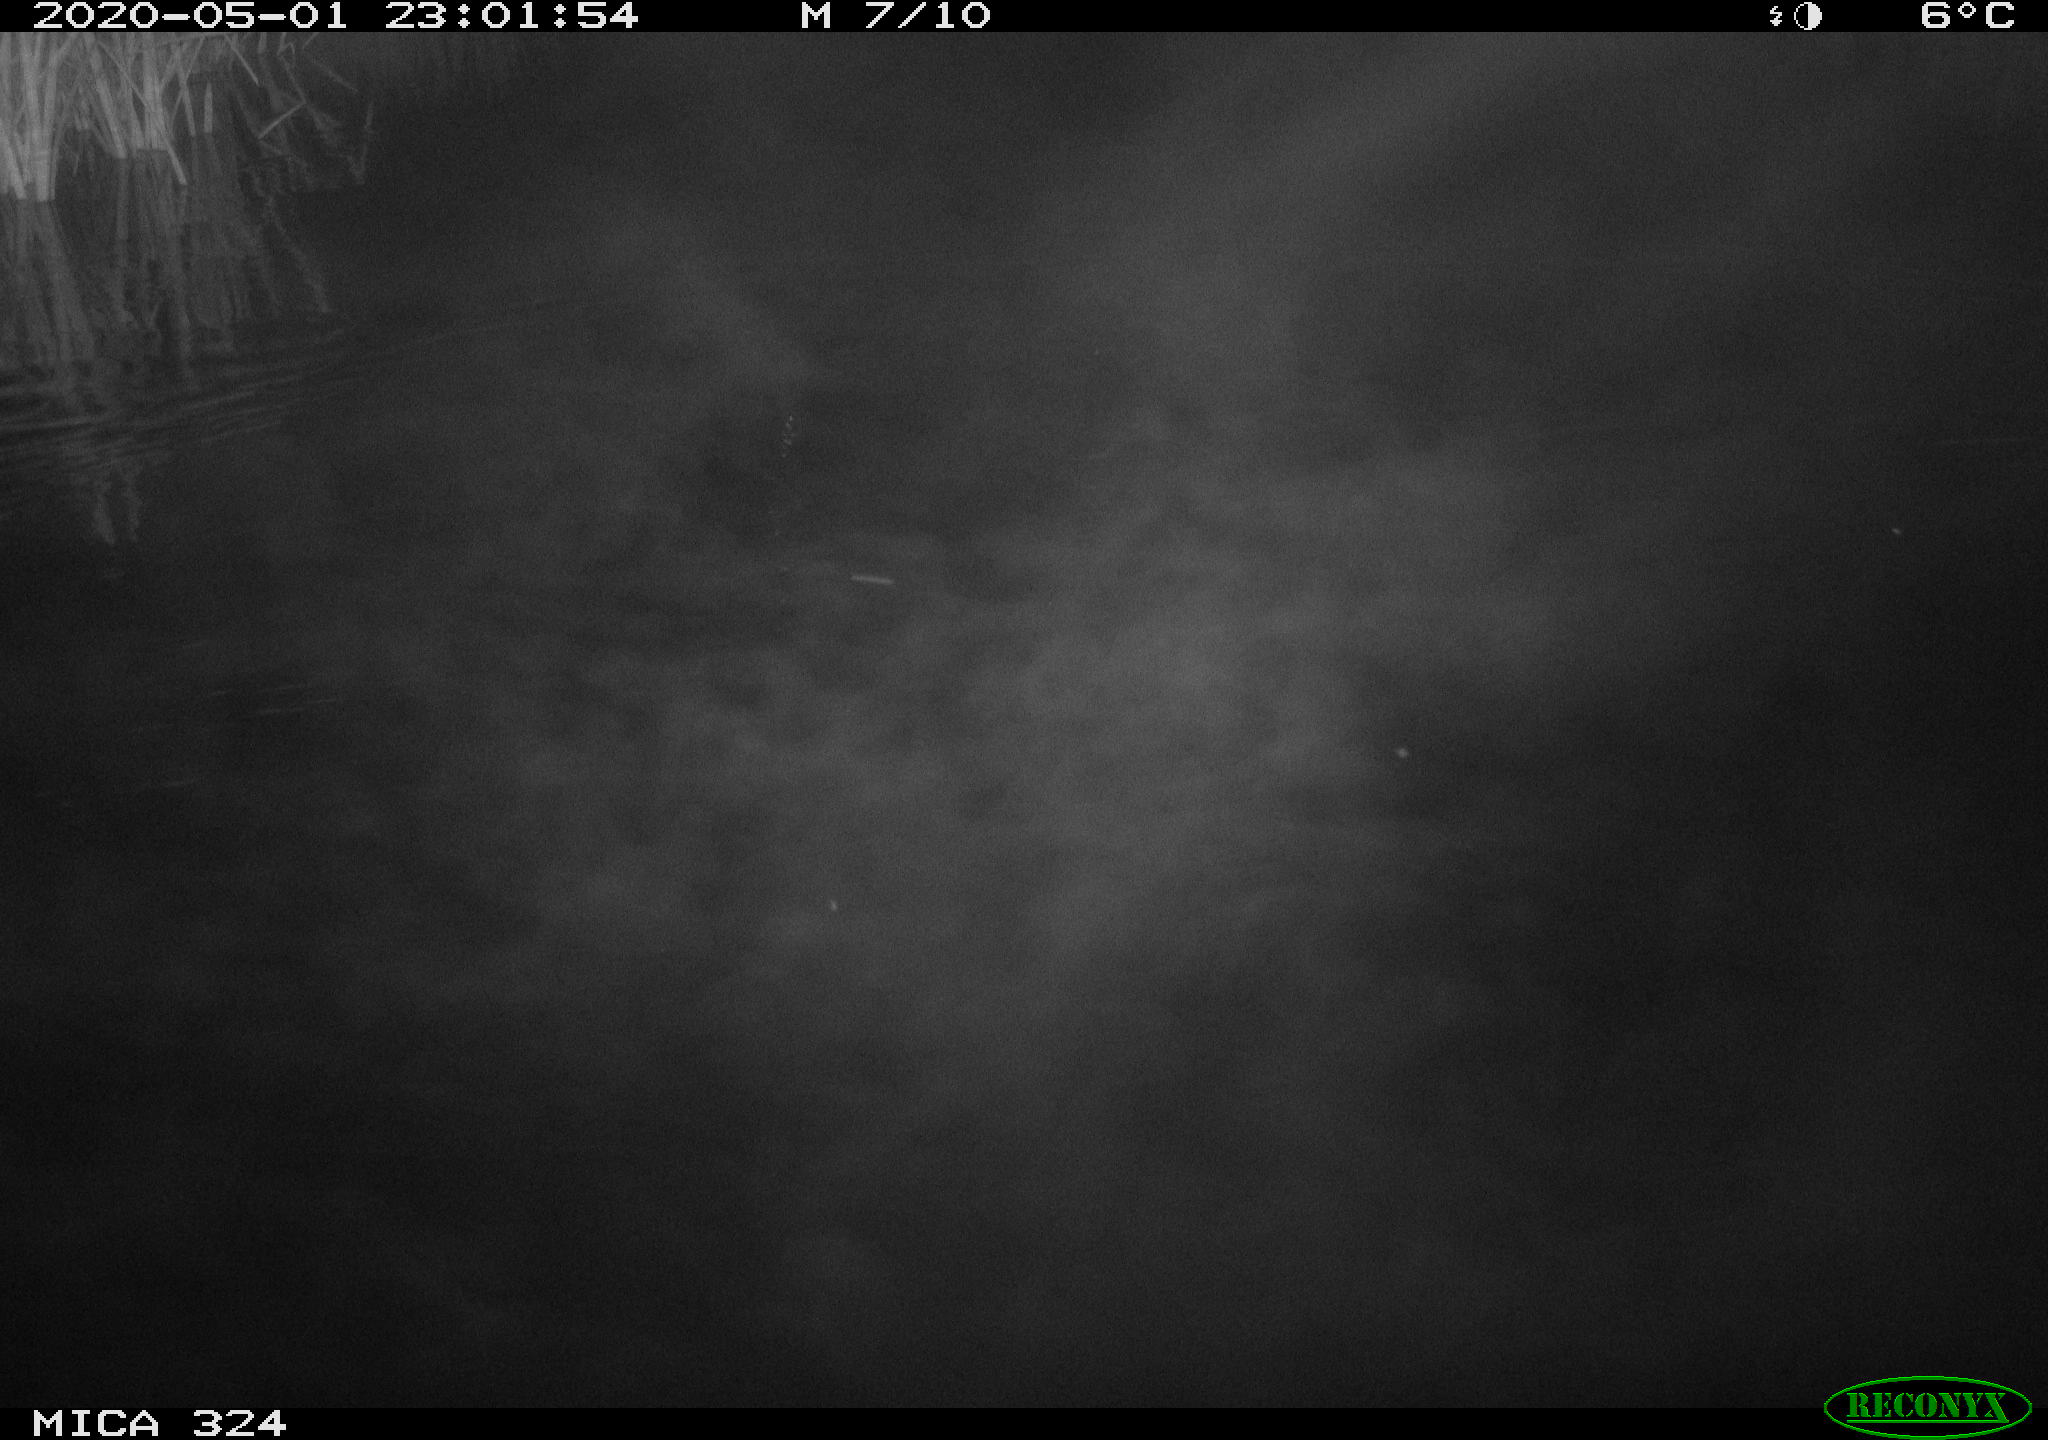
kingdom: Animalia
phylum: Chordata
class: Mammalia
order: Rodentia
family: Muridae
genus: Rattus
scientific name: Rattus norvegicus
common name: Brown rat
